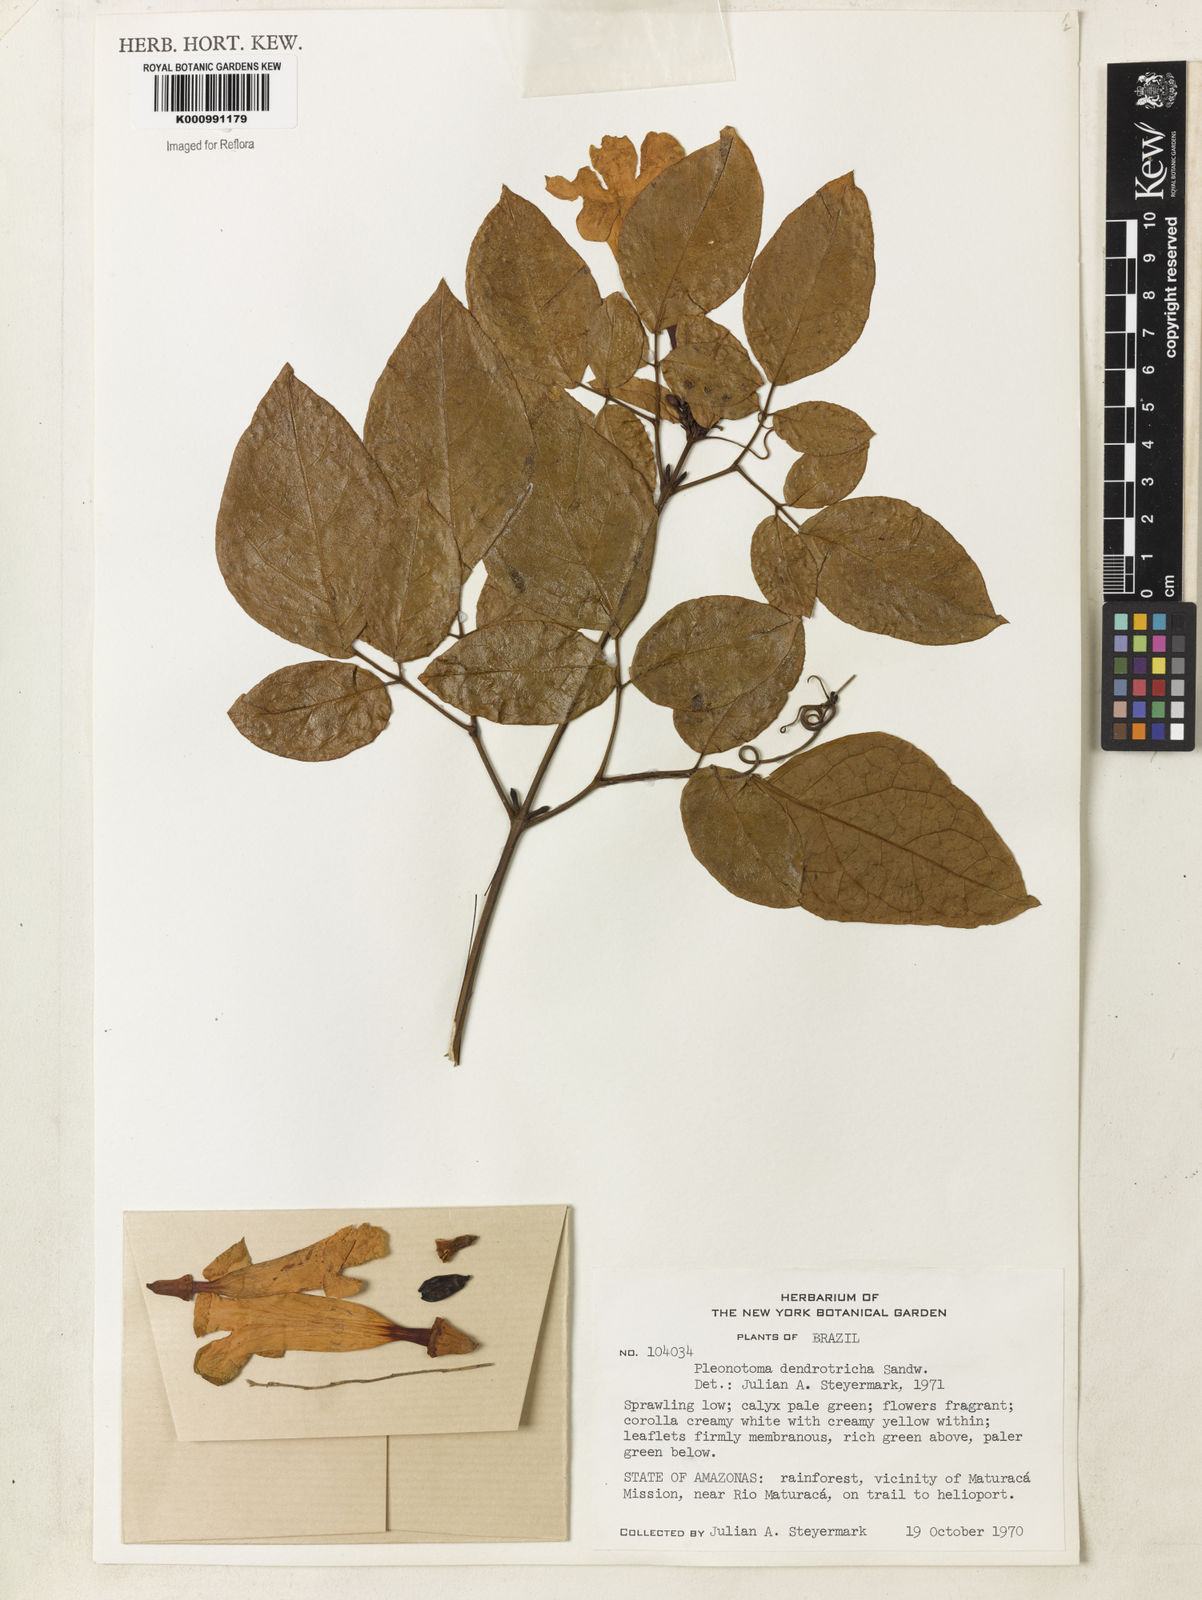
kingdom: Plantae
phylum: Tracheophyta
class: Magnoliopsida
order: Lamiales
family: Bignoniaceae
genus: Pleonotoma
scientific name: Pleonotoma dendrotricha
